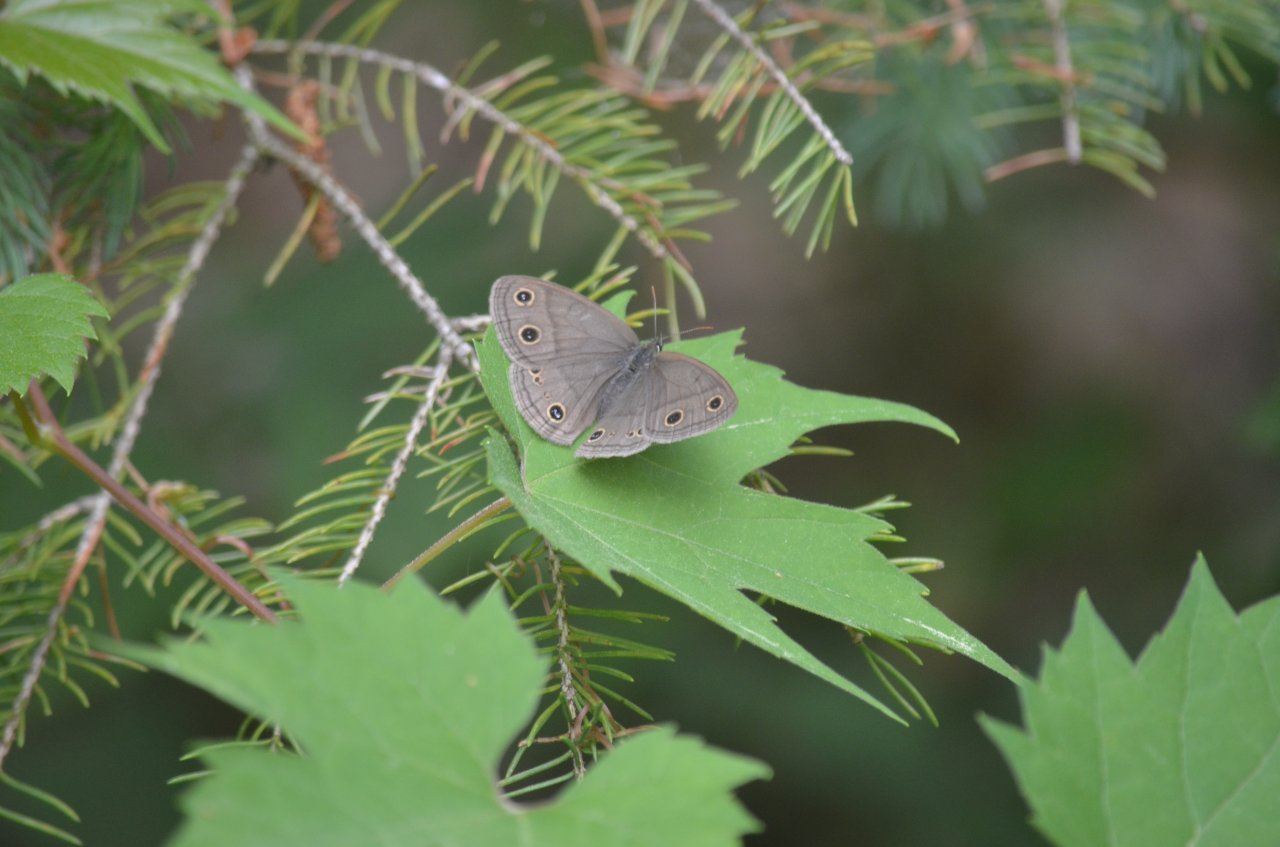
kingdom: Animalia
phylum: Arthropoda
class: Insecta
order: Lepidoptera
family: Nymphalidae
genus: Euptychia
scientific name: Euptychia cymela
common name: Little Wood Satyr
